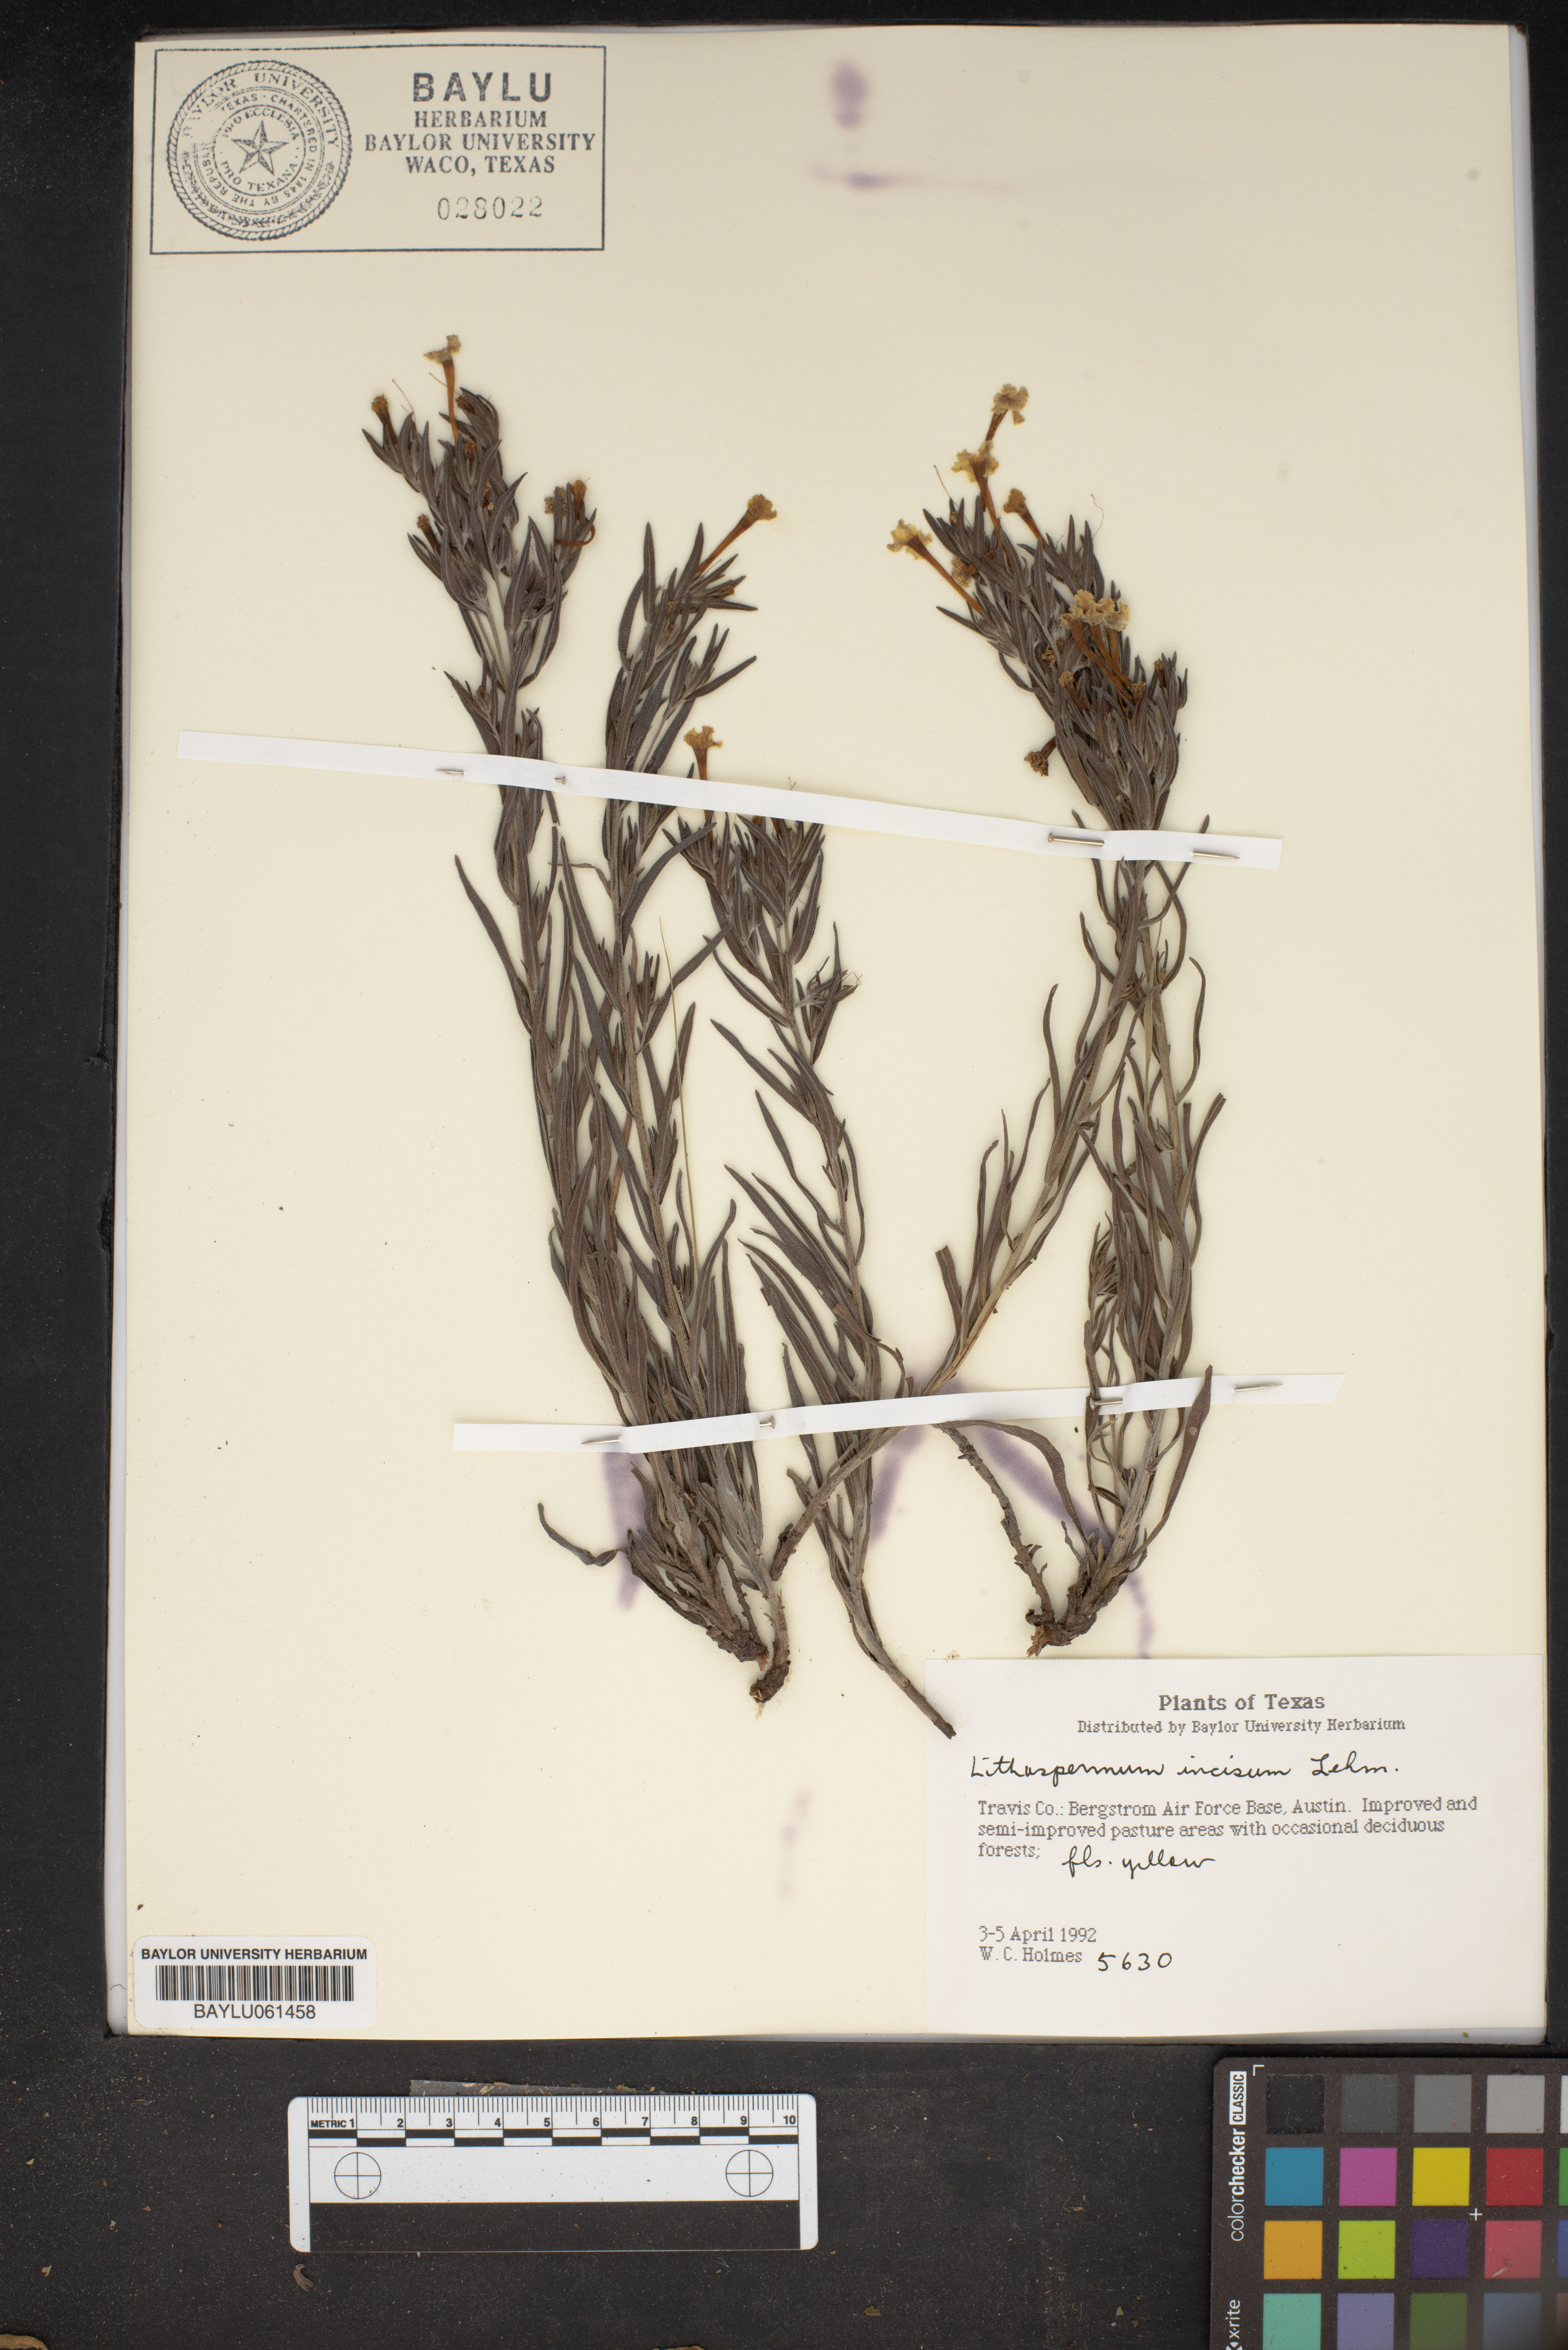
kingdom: Plantae
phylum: Tracheophyta
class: Magnoliopsida
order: Boraginales
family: Boraginaceae
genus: Lithospermum
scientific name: Lithospermum incisum
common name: Fringed gromwell
